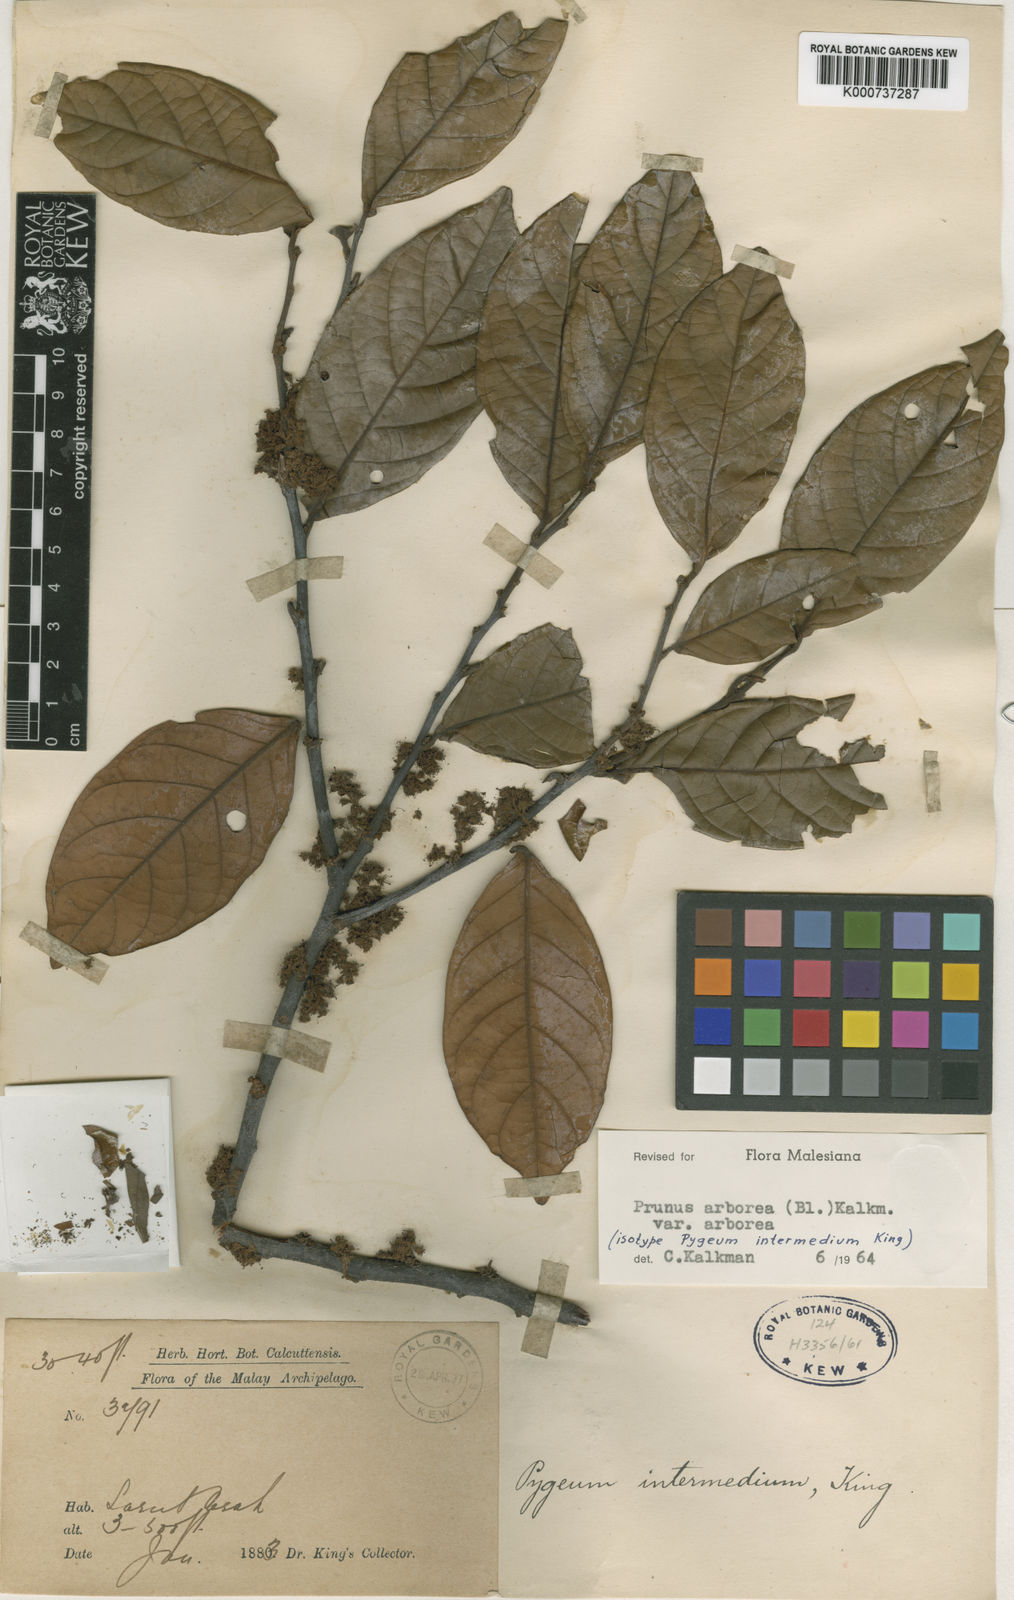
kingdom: Plantae
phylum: Tracheophyta
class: Magnoliopsida
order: Rosales
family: Rosaceae
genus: Prunus
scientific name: Prunus arborea
